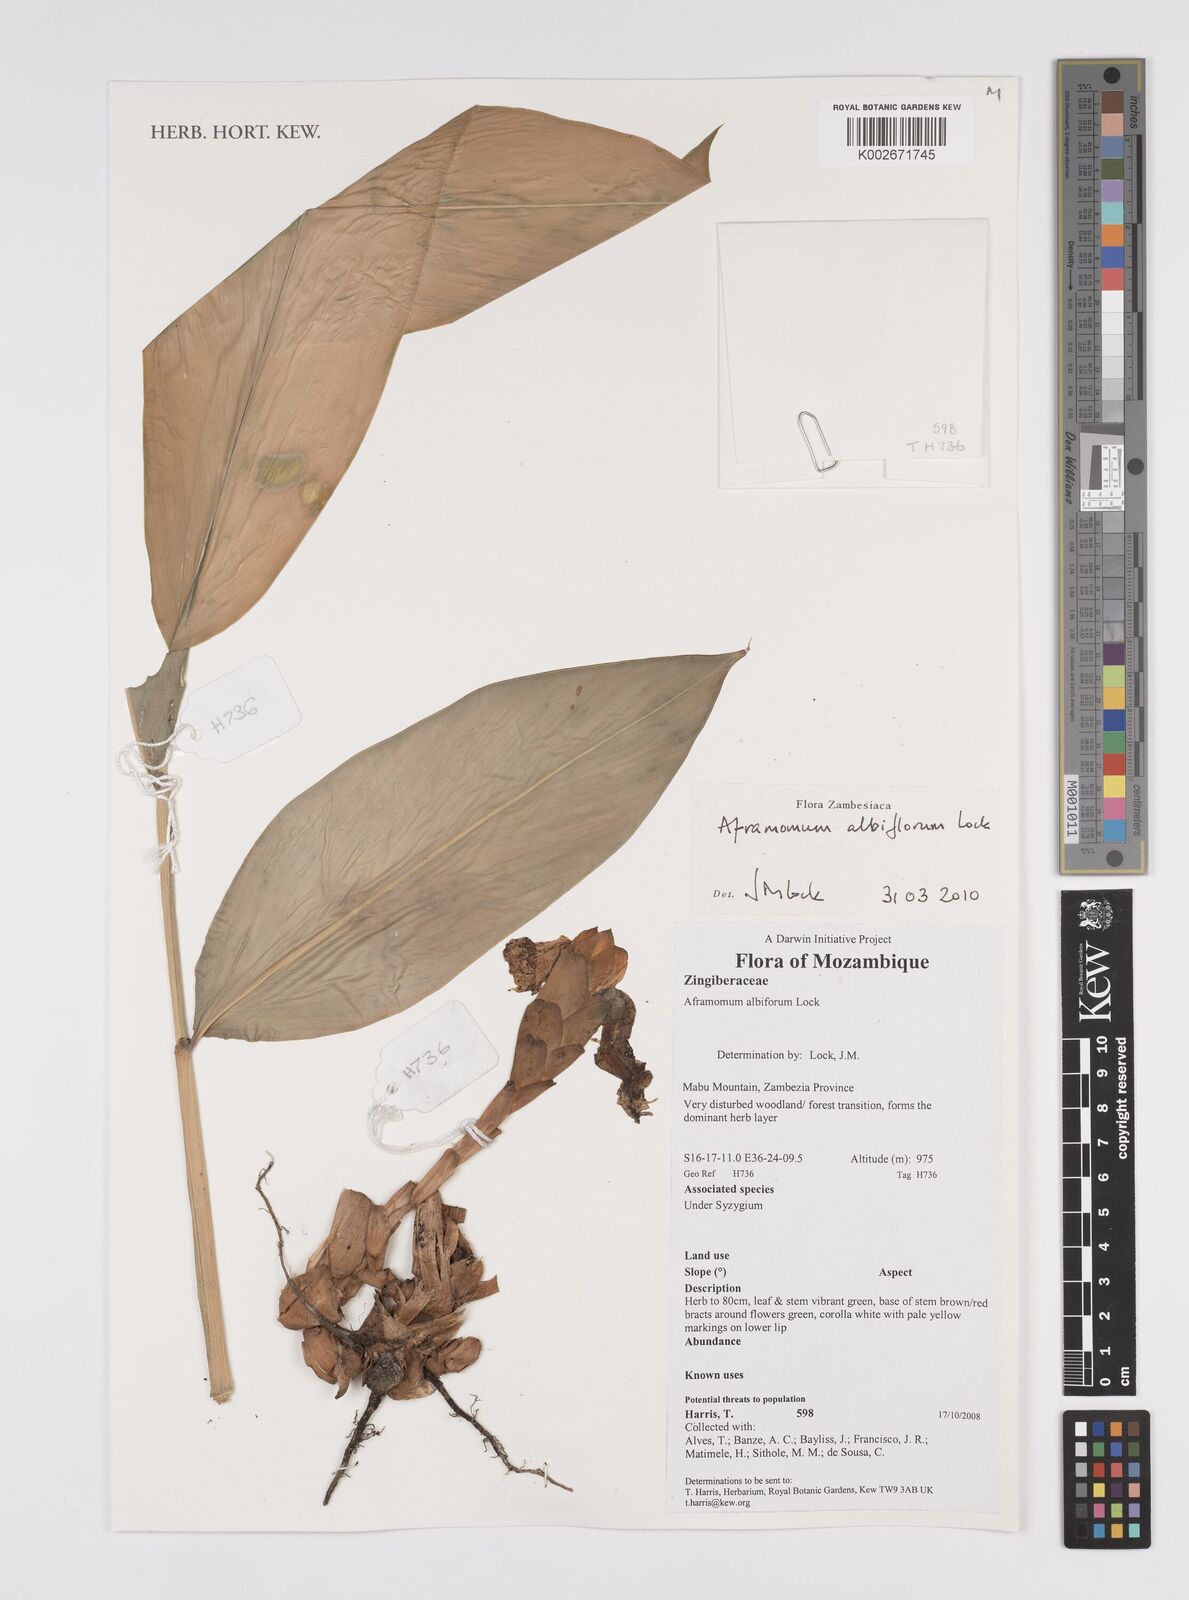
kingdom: Plantae
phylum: Tracheophyta
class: Liliopsida
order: Zingiberales
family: Zingiberaceae
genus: Aframomum
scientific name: Aframomum albiflorum
